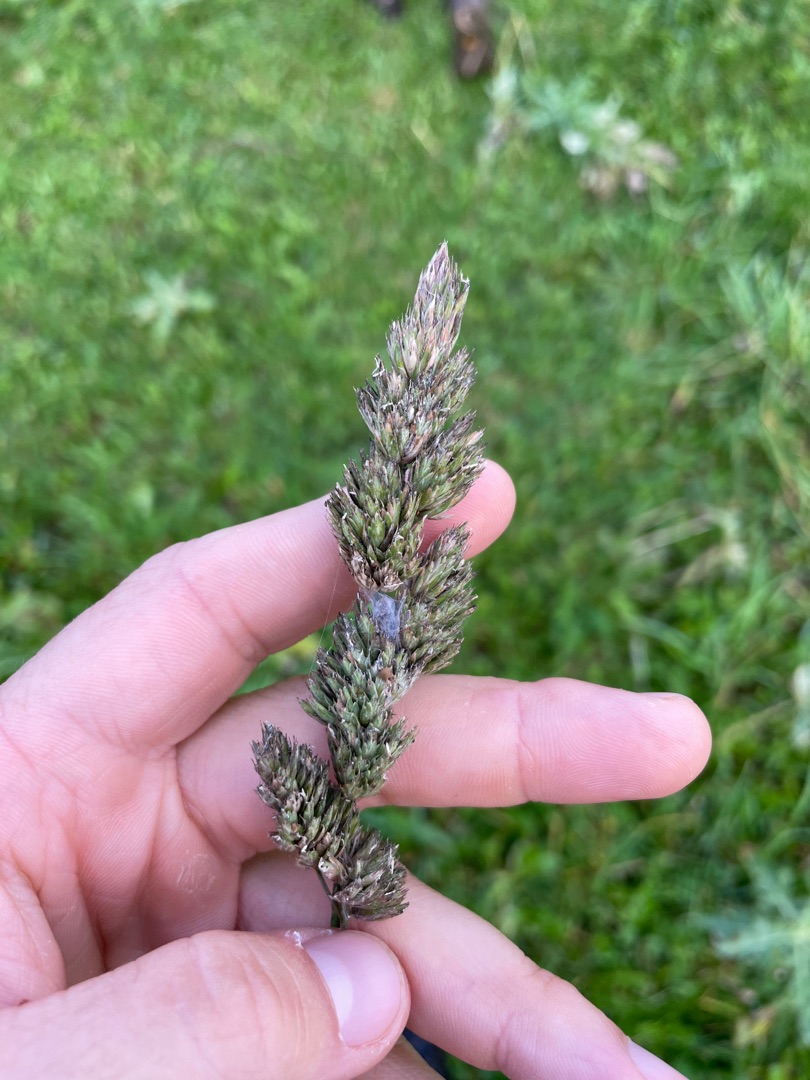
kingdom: Plantae
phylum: Tracheophyta
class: Liliopsida
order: Poales
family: Poaceae
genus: Dactylis
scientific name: Dactylis glomerata
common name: Almindelig hundegræs
